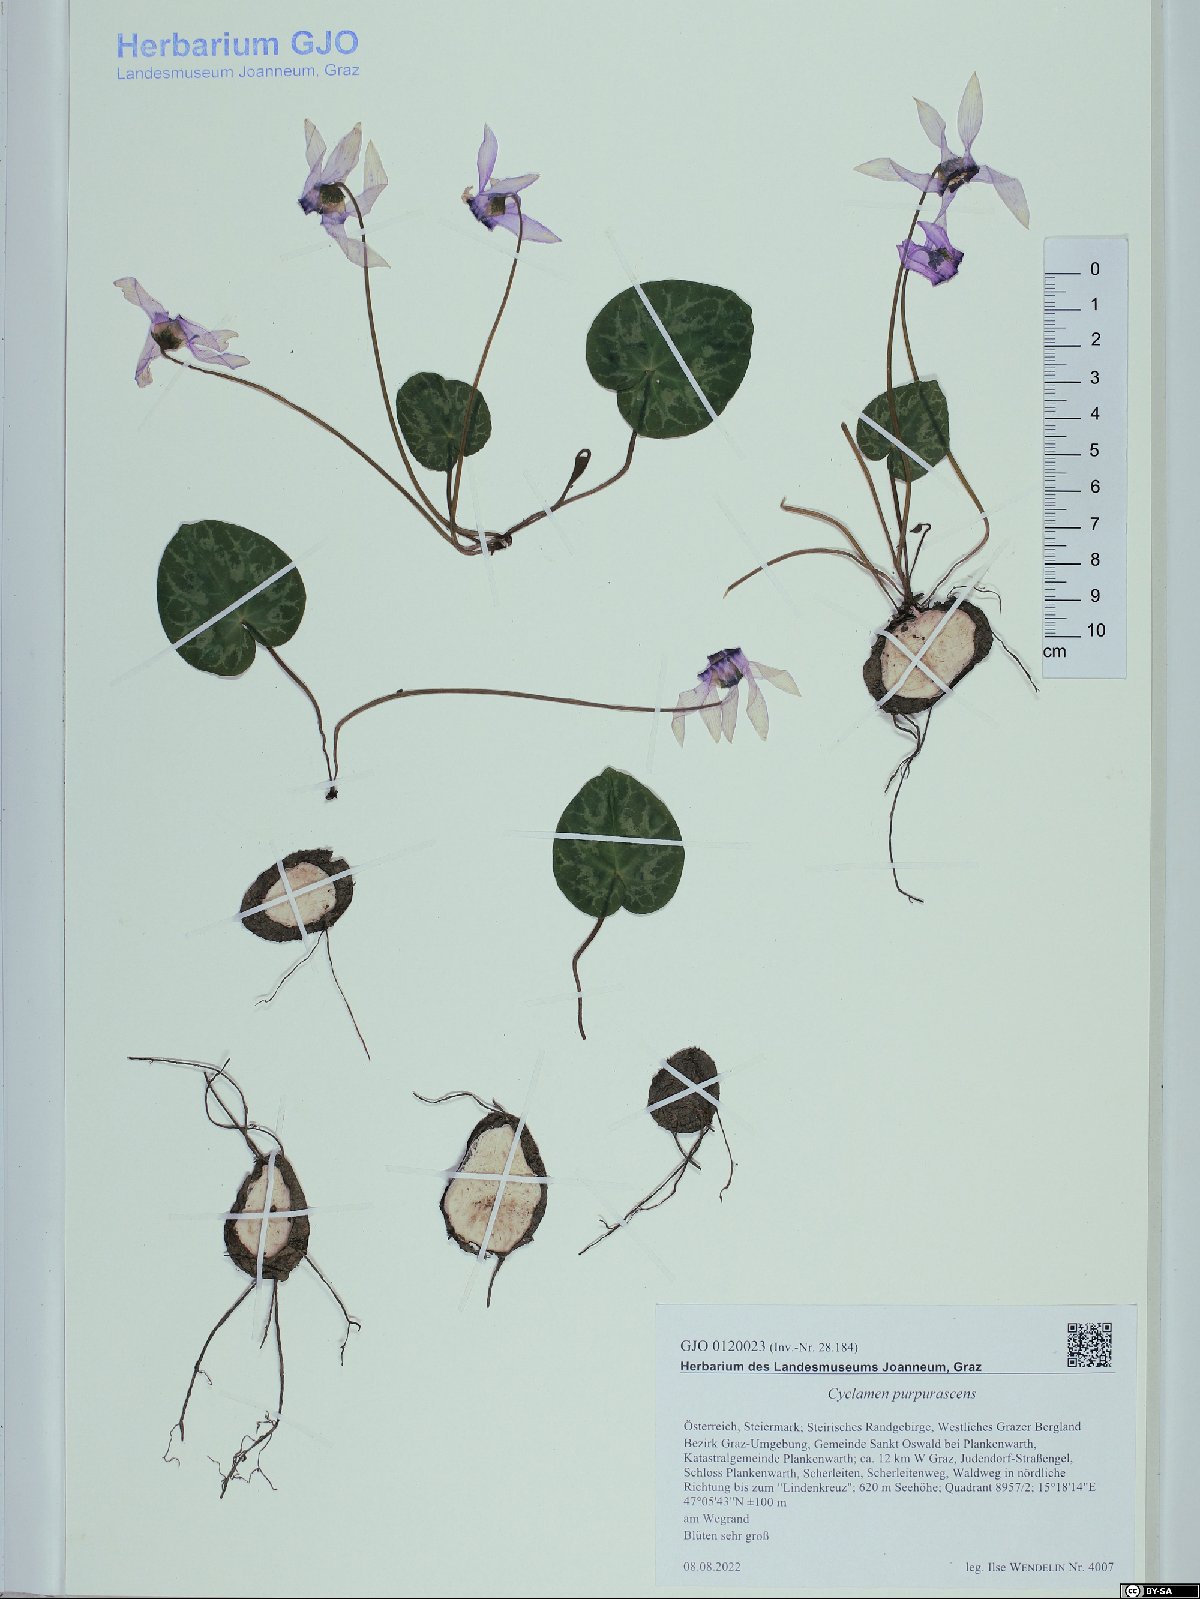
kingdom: Plantae
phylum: Tracheophyta
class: Magnoliopsida
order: Ericales
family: Primulaceae
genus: Cyclamen
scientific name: Cyclamen purpurascens
